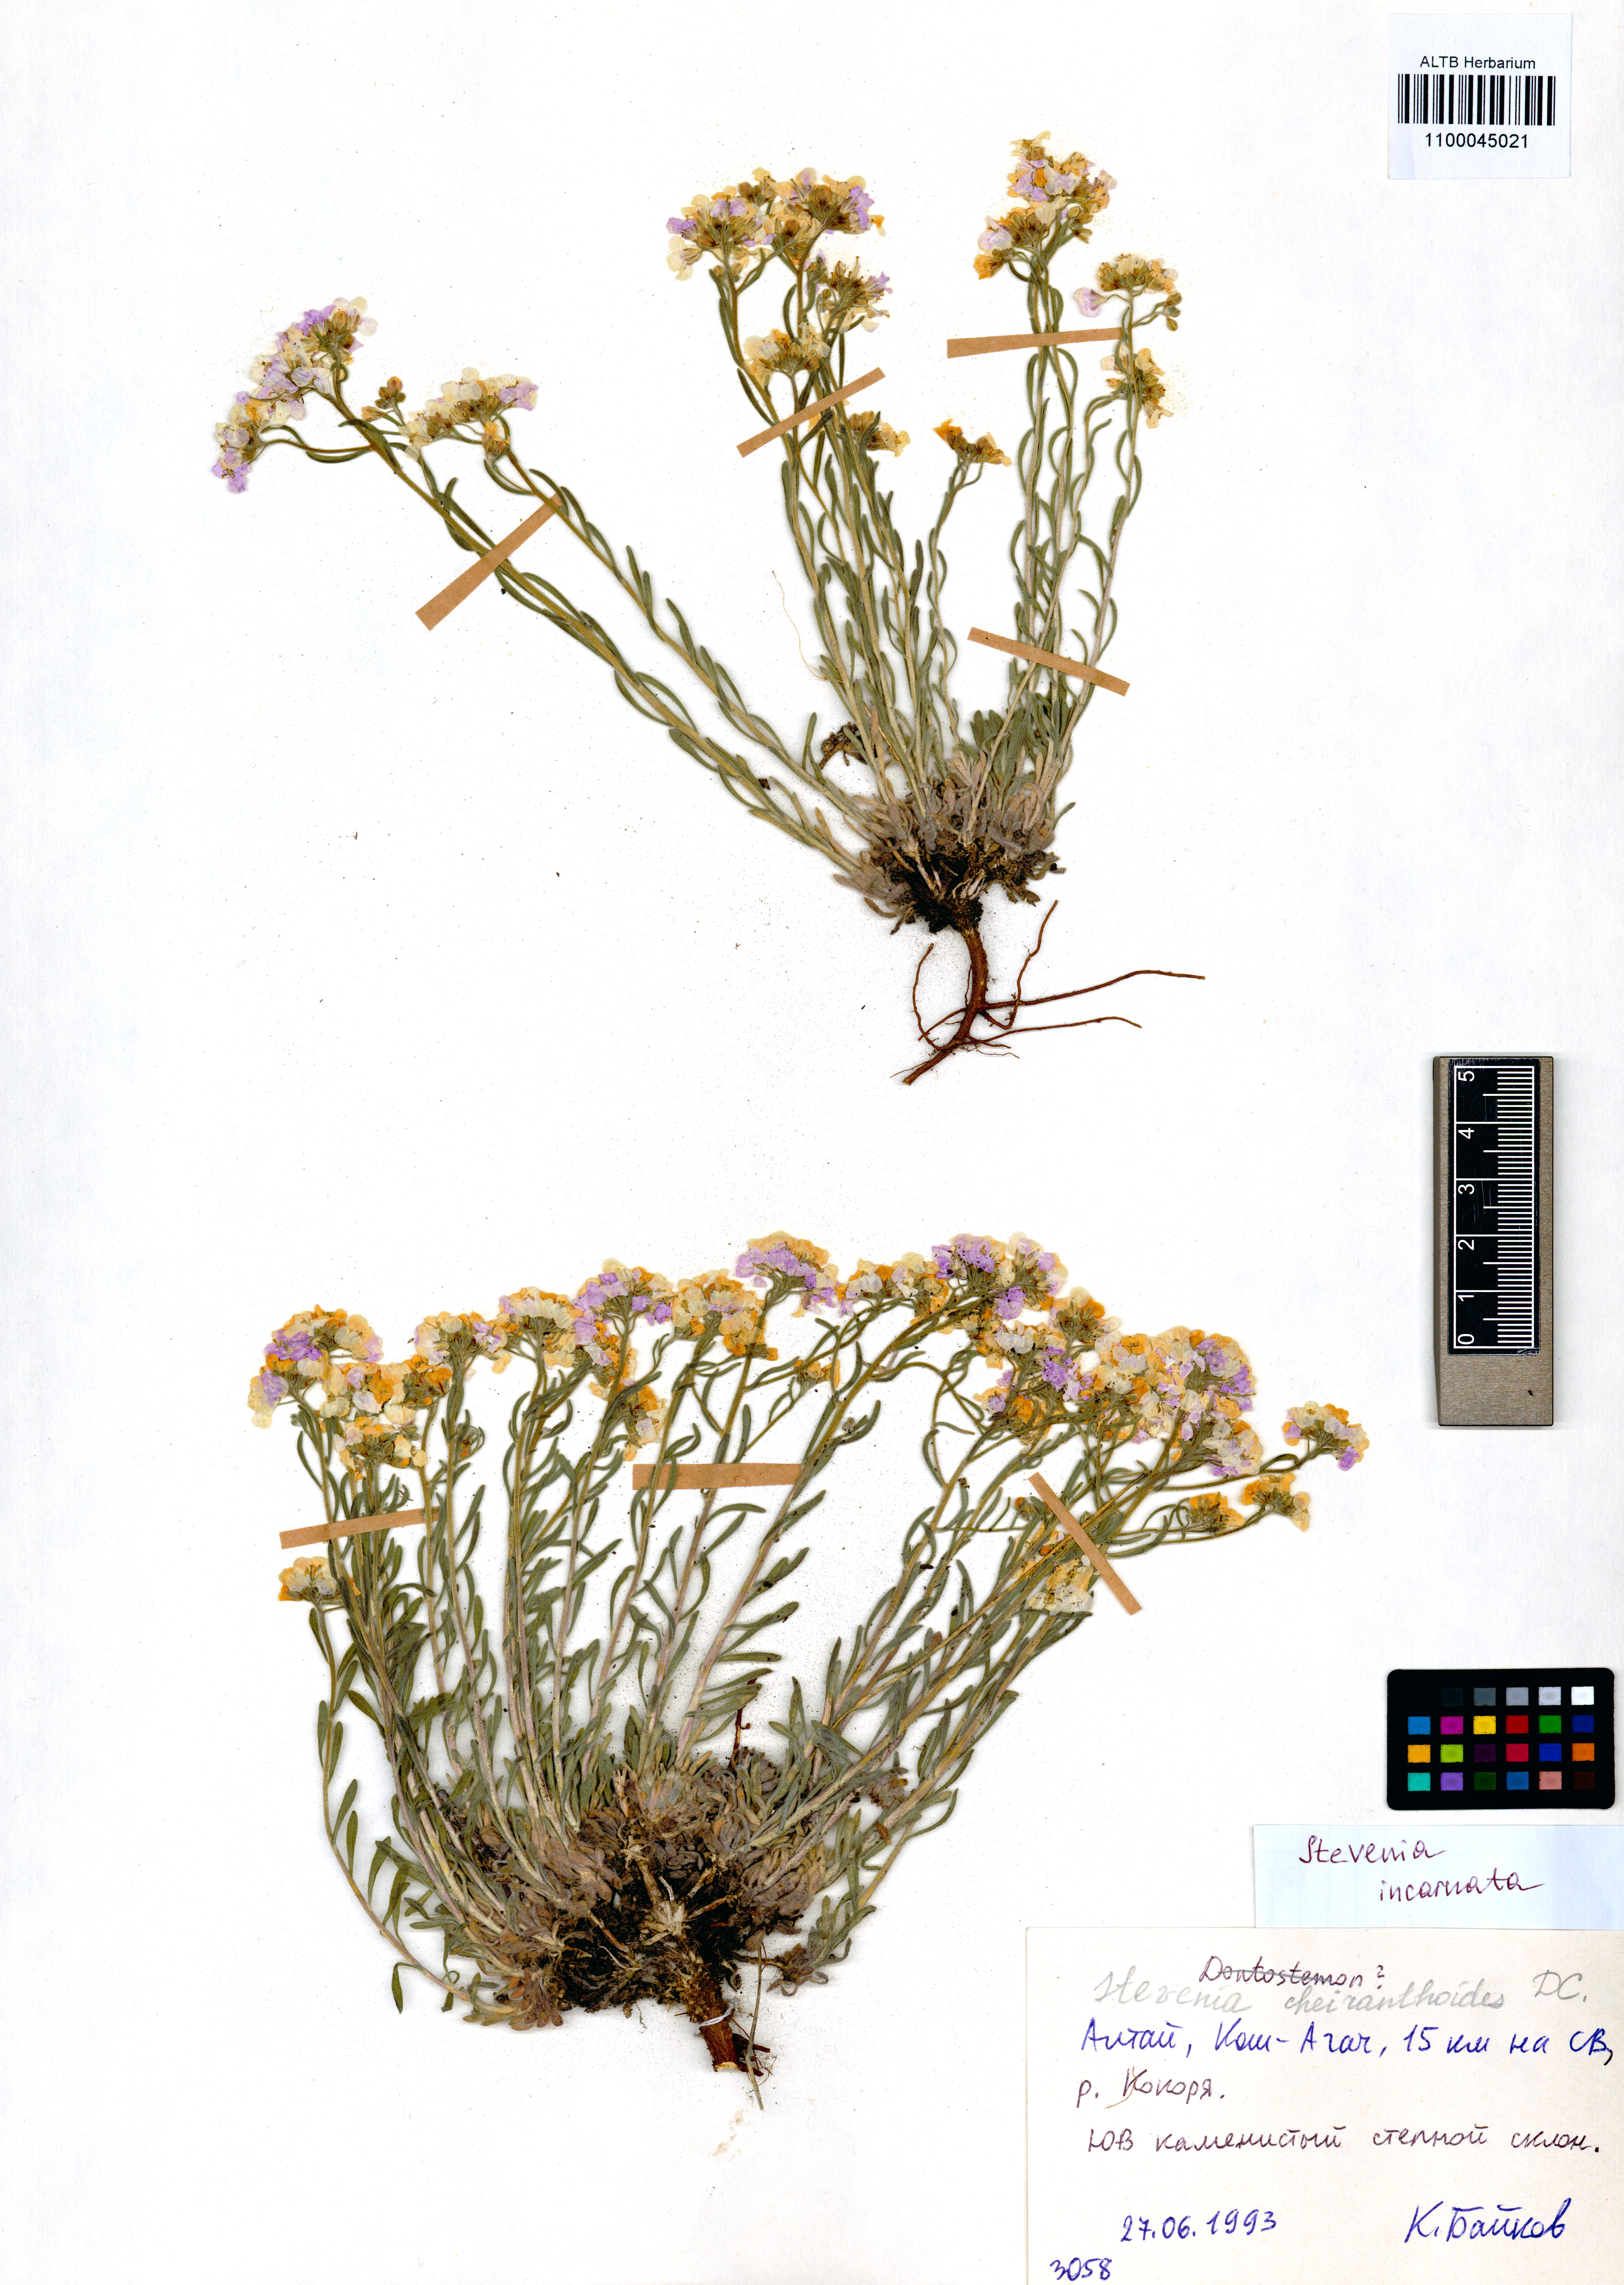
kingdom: Plantae
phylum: Tracheophyta
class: Magnoliopsida
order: Brassicales
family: Brassicaceae
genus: Stevenia
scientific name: Stevenia incarnata
